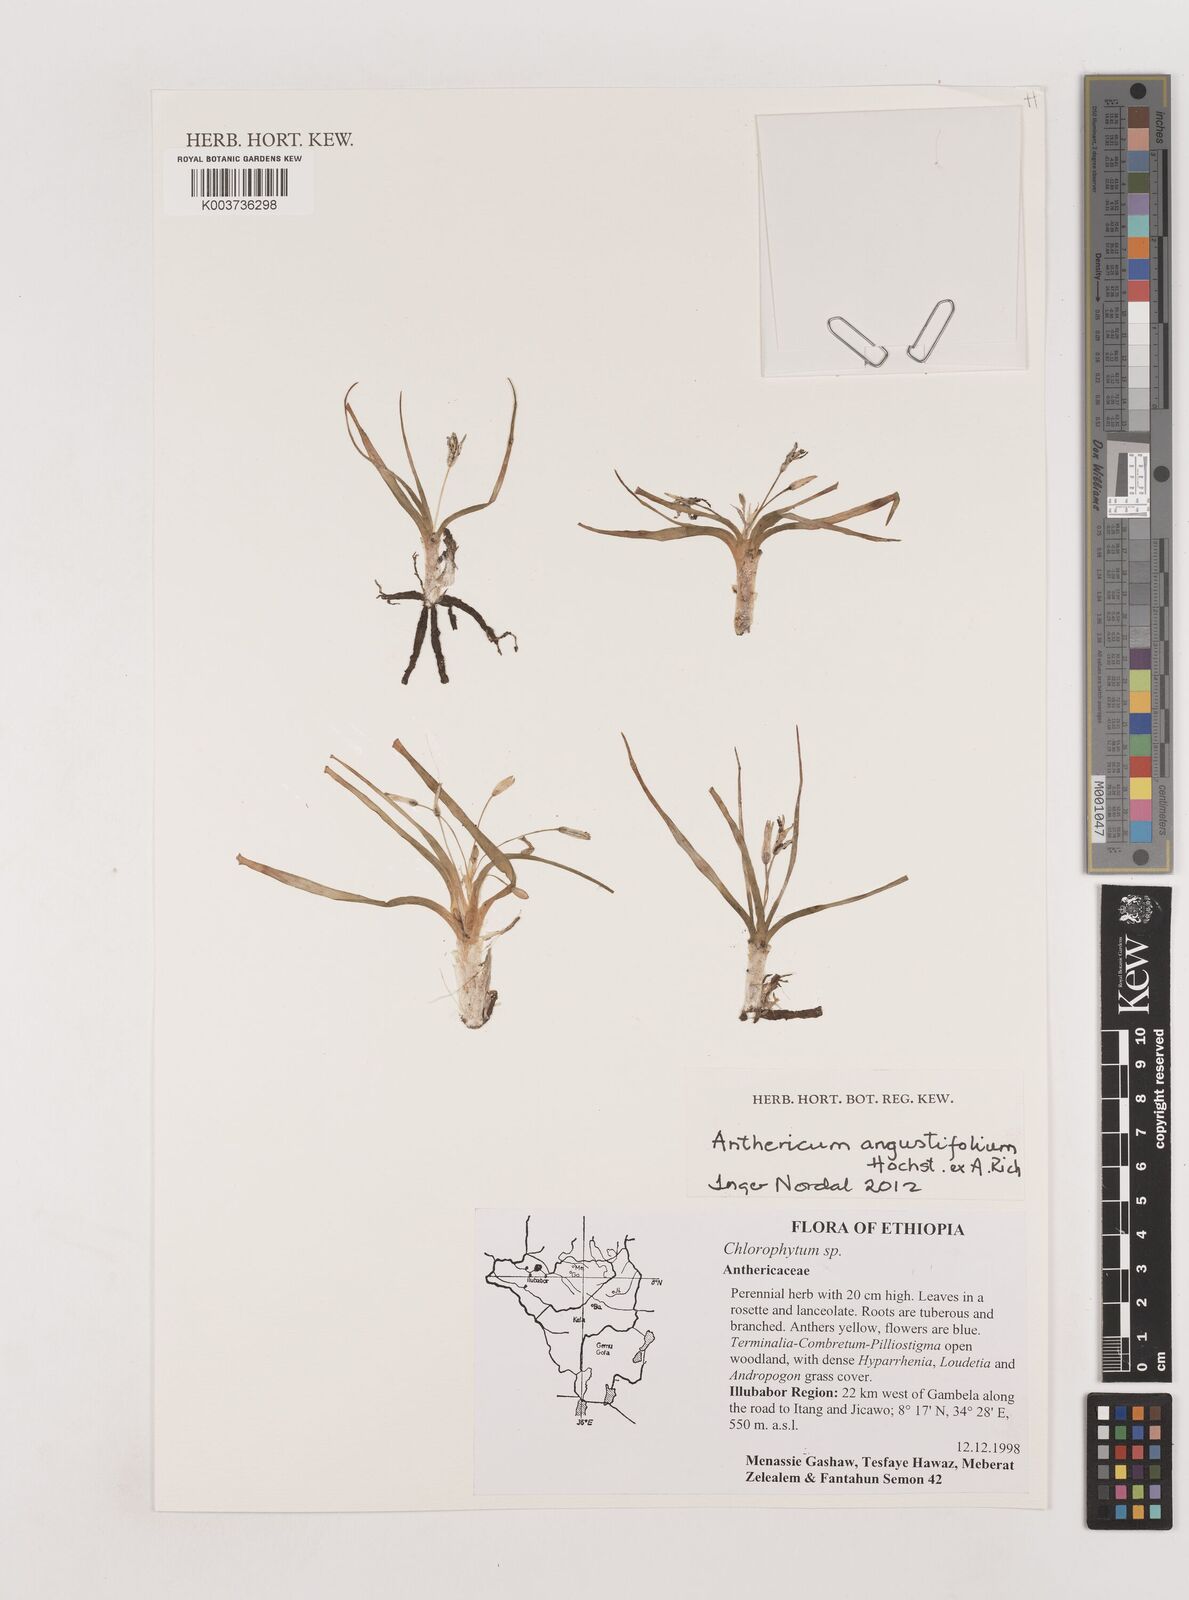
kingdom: Plantae
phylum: Tracheophyta
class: Liliopsida
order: Asparagales
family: Asparagaceae
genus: Anthericum
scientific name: Anthericum angustifolium
